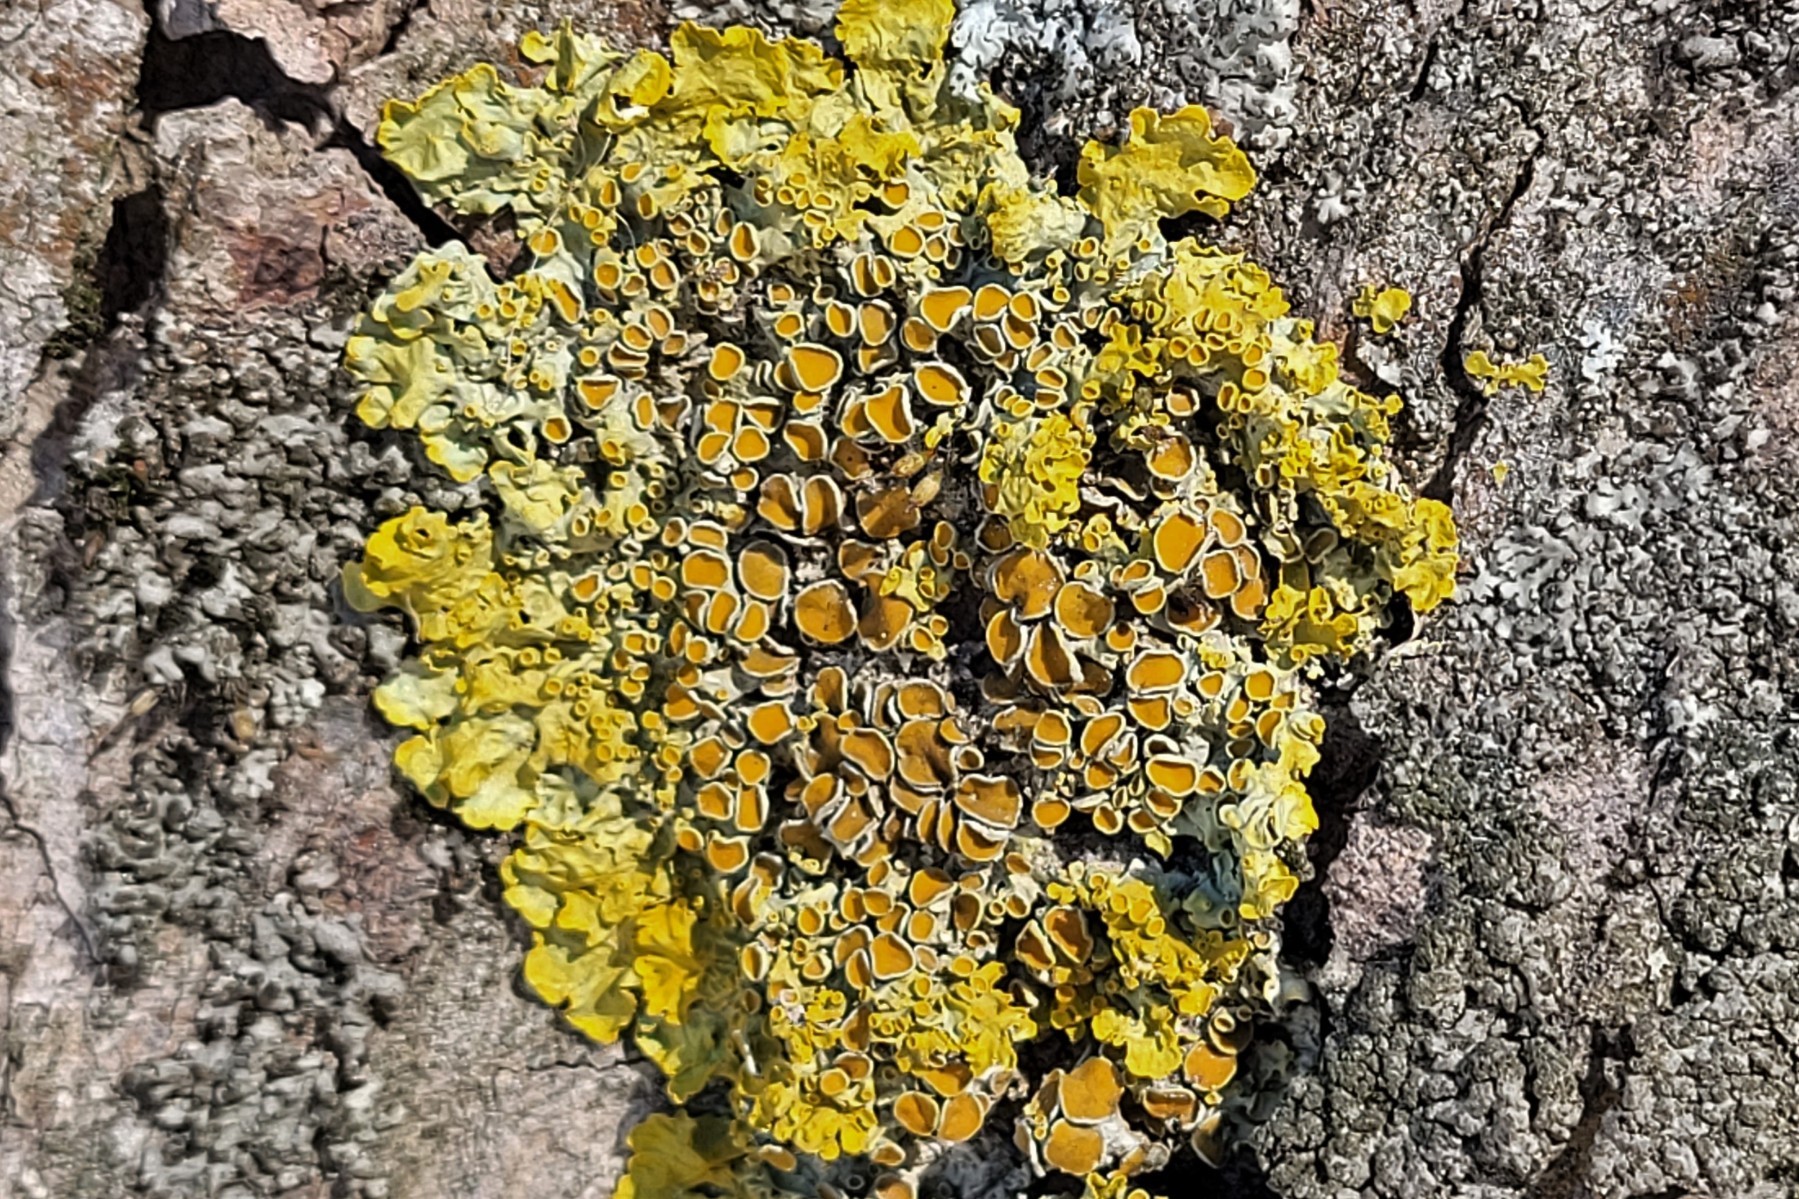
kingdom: Fungi
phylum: Ascomycota
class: Lecanoromycetes
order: Teloschistales
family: Teloschistaceae
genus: Xanthoria
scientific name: Xanthoria parietina
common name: almindelig væggelav
